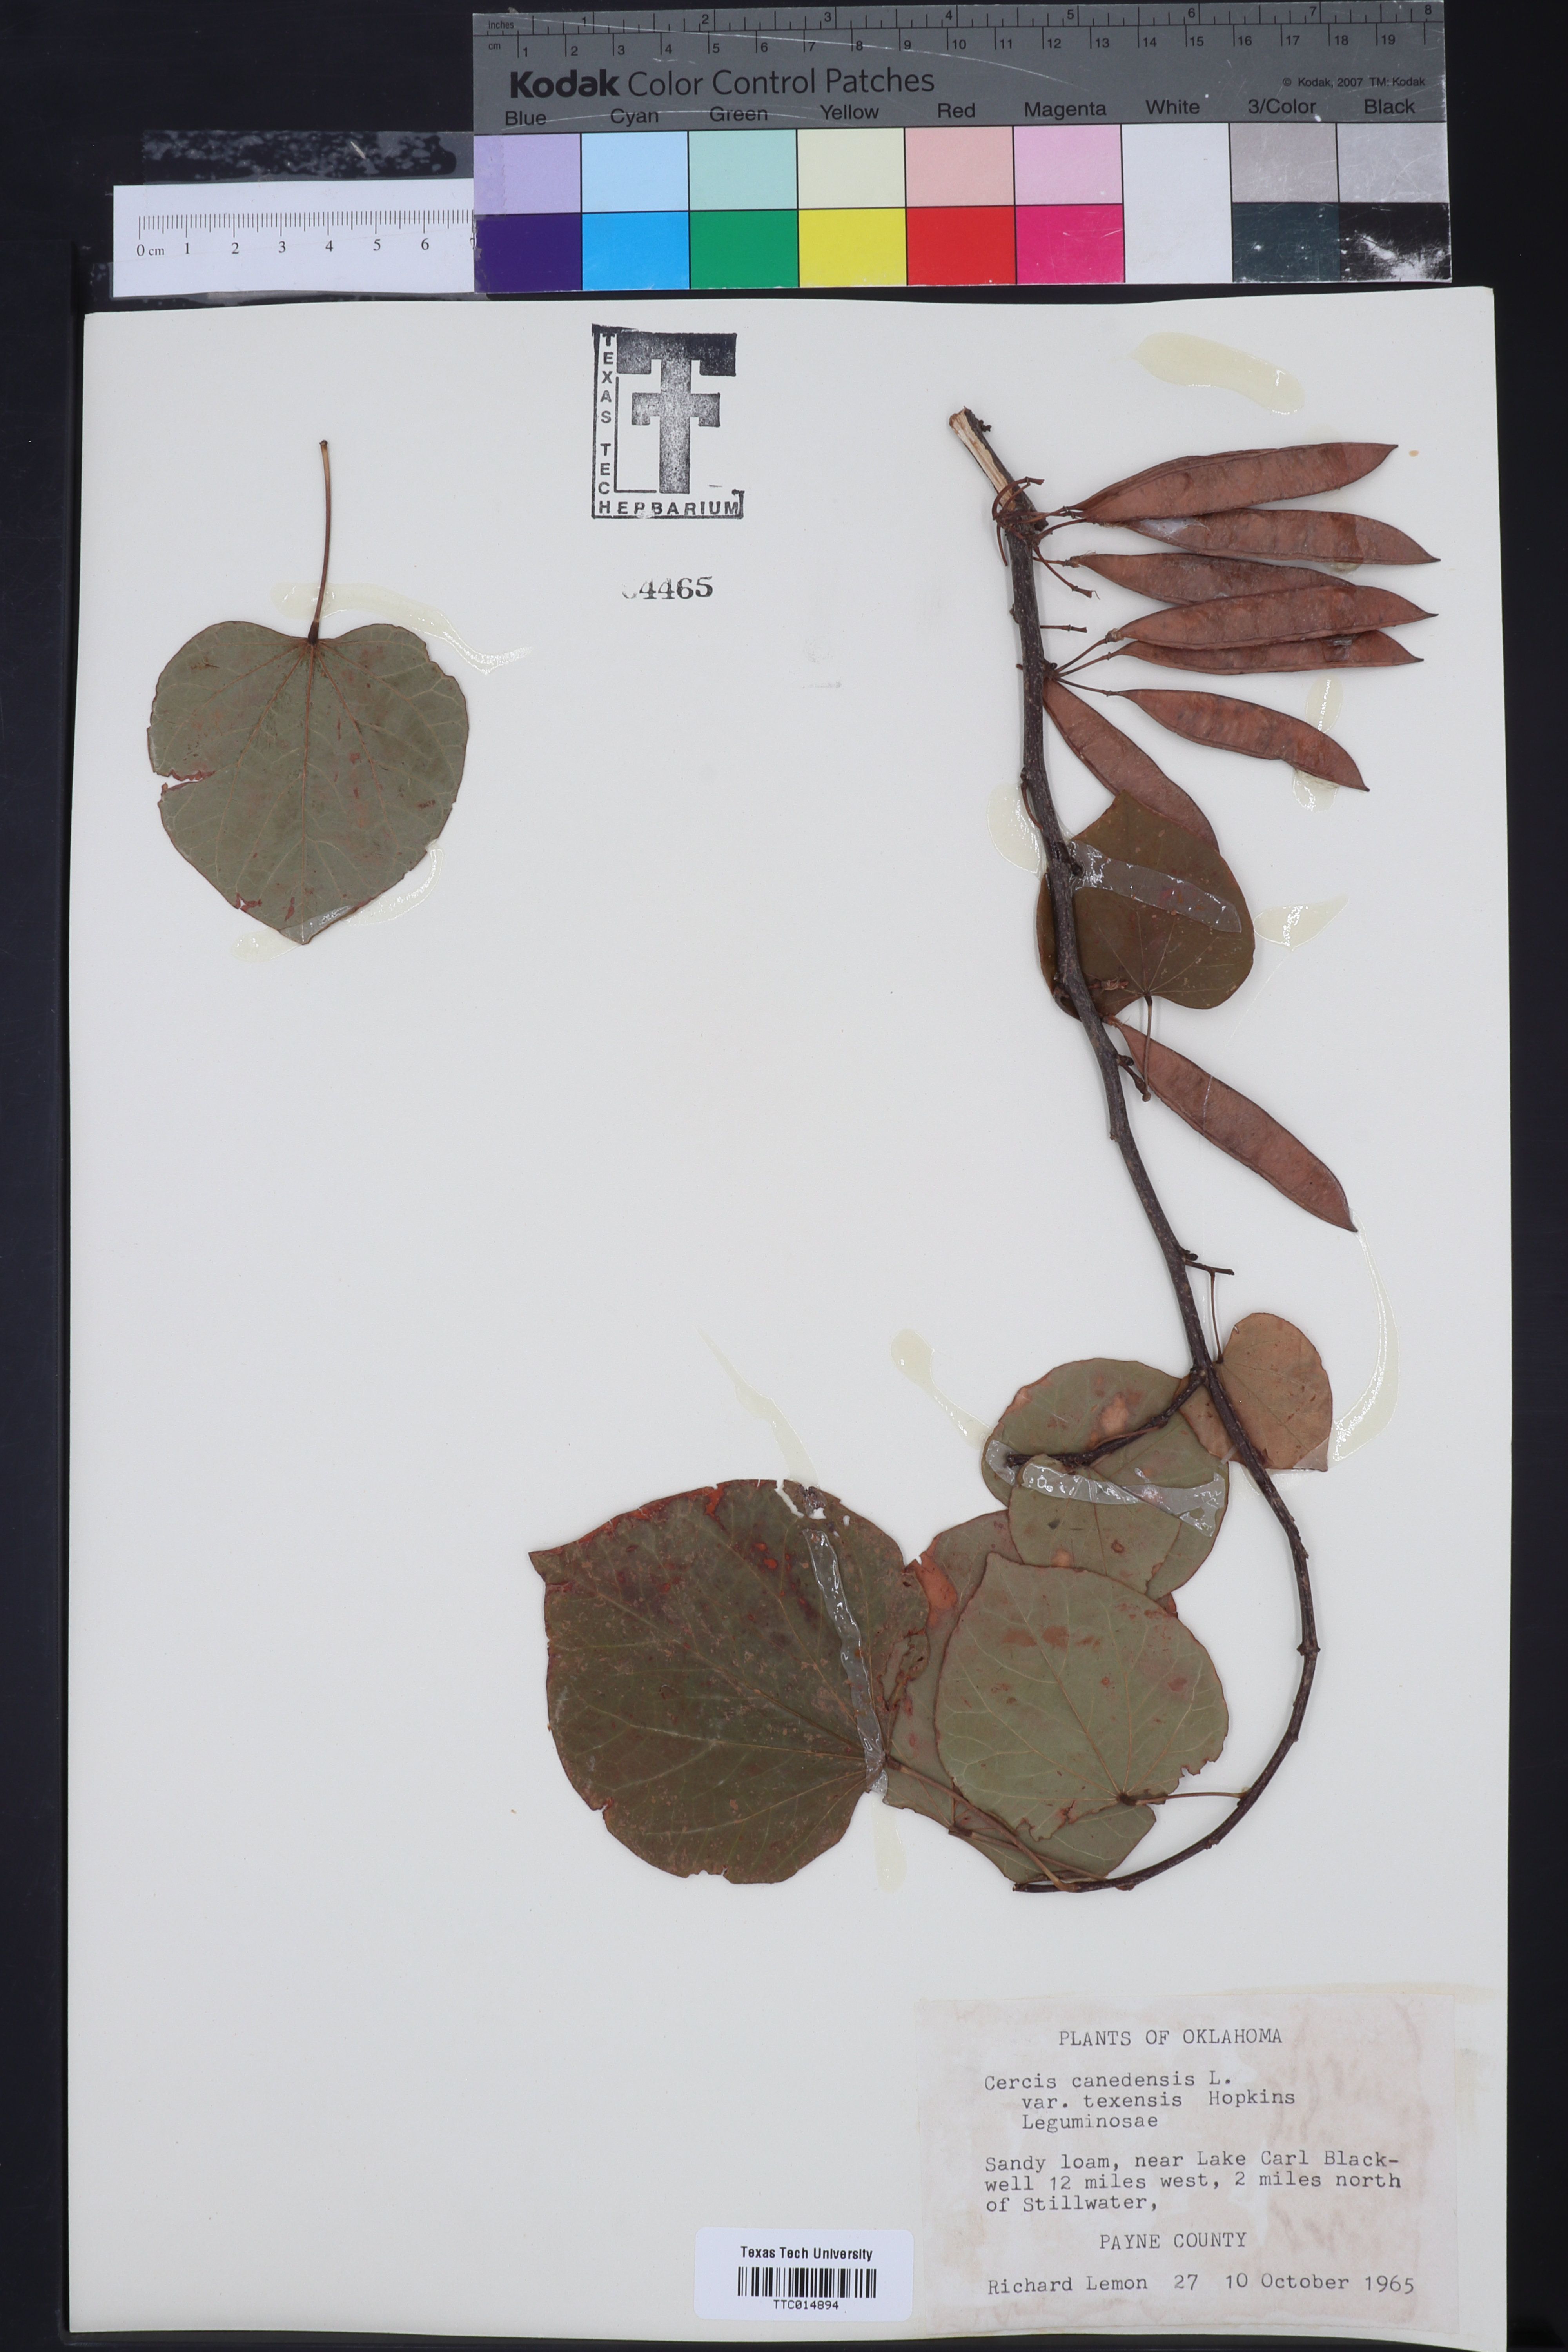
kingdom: Plantae
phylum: Tracheophyta
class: Magnoliopsida
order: Fabales
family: Fabaceae
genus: Cercis
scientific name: Cercis canadensis
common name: Eastern redbud
